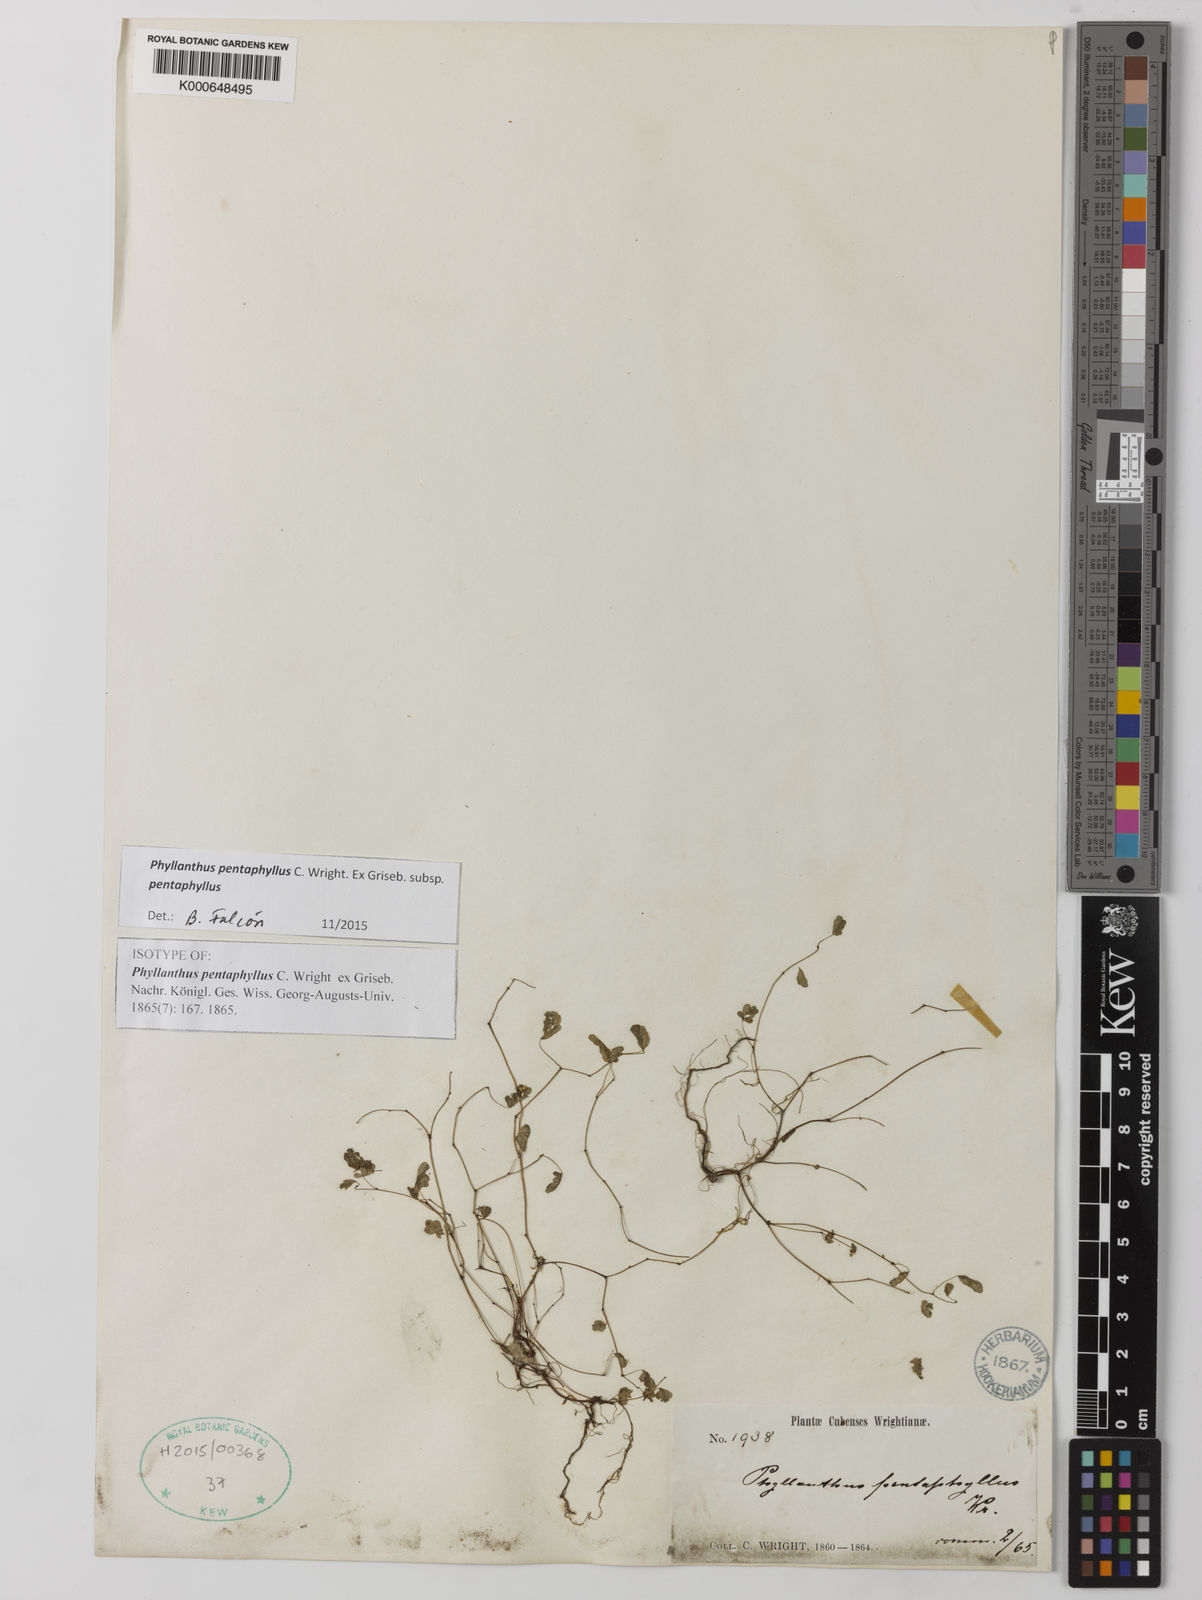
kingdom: Plantae
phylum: Tracheophyta
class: Magnoliopsida
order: Malpighiales
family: Phyllanthaceae
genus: Phyllanthus
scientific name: Phyllanthus pentaphyllus
